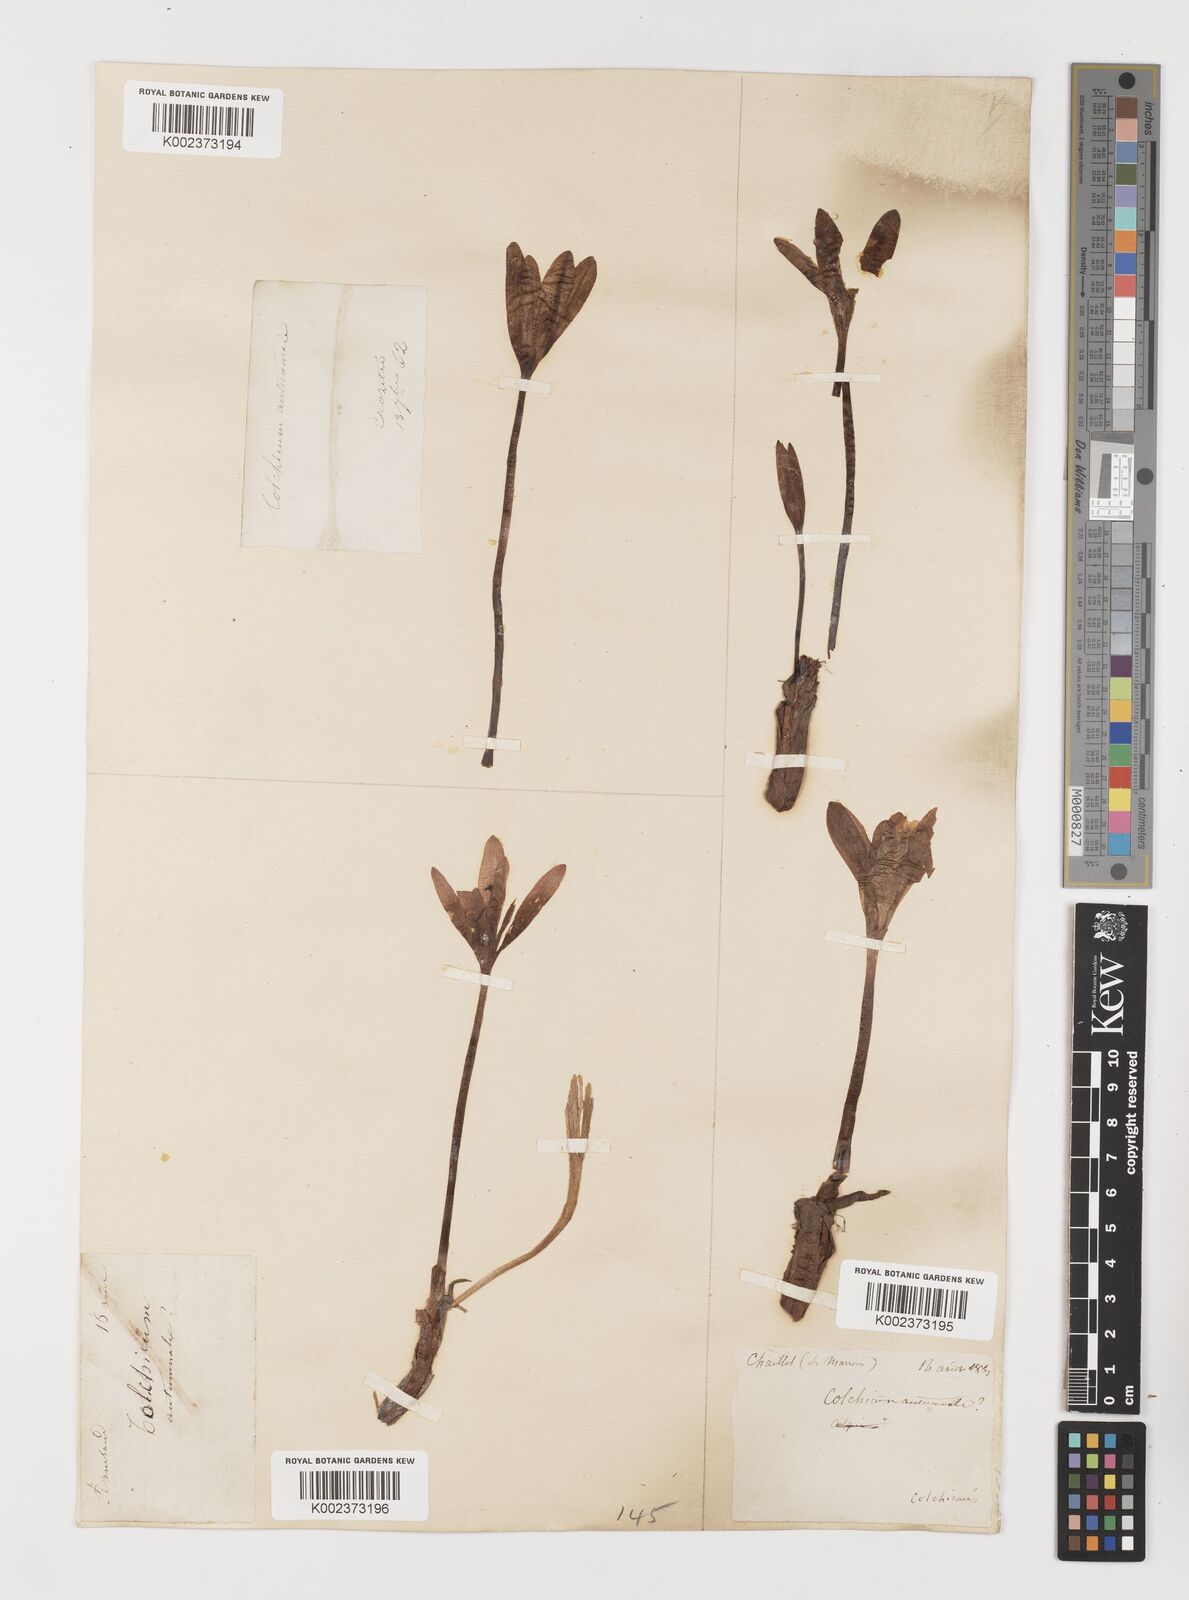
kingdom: Plantae
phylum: Tracheophyta
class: Liliopsida
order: Liliales
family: Colchicaceae
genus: Colchicum
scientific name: Colchicum autumnale
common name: Autumn crocus
